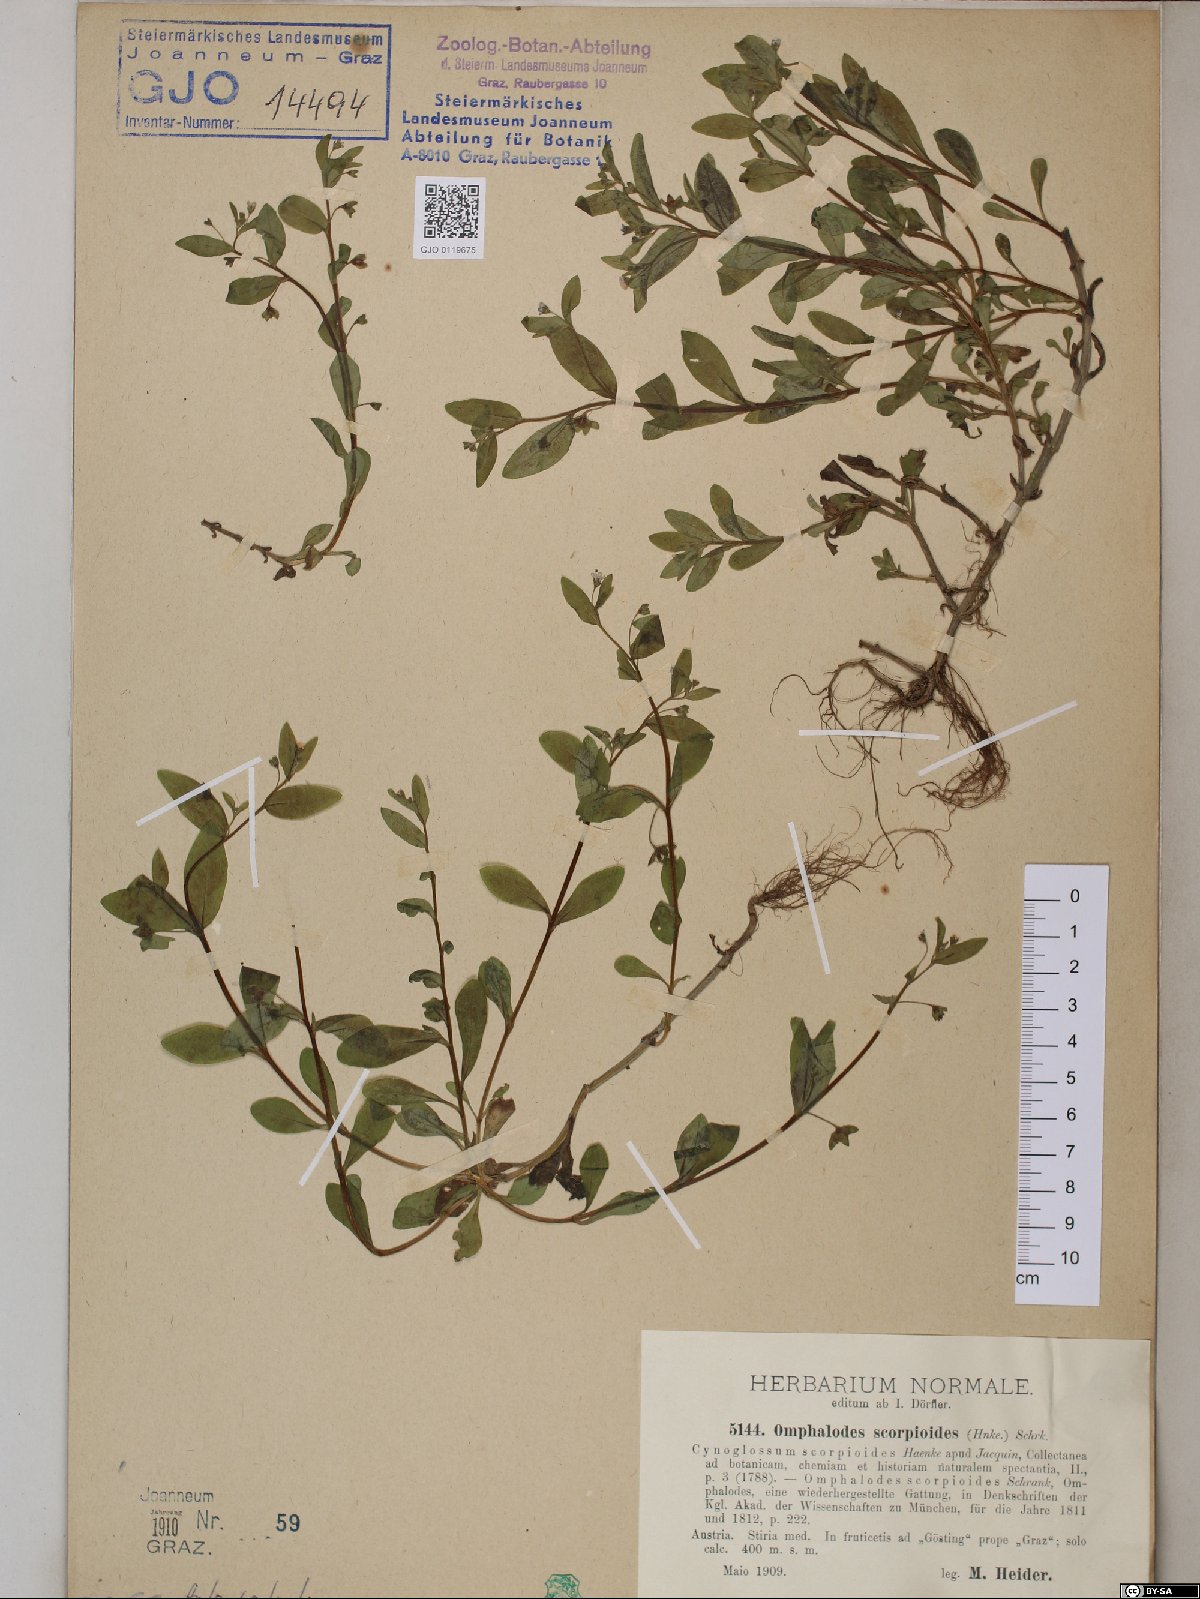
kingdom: Plantae
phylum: Tracheophyta
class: Magnoliopsida
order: Boraginales
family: Boraginaceae
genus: Memoremea
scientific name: Memoremea scorpioides
